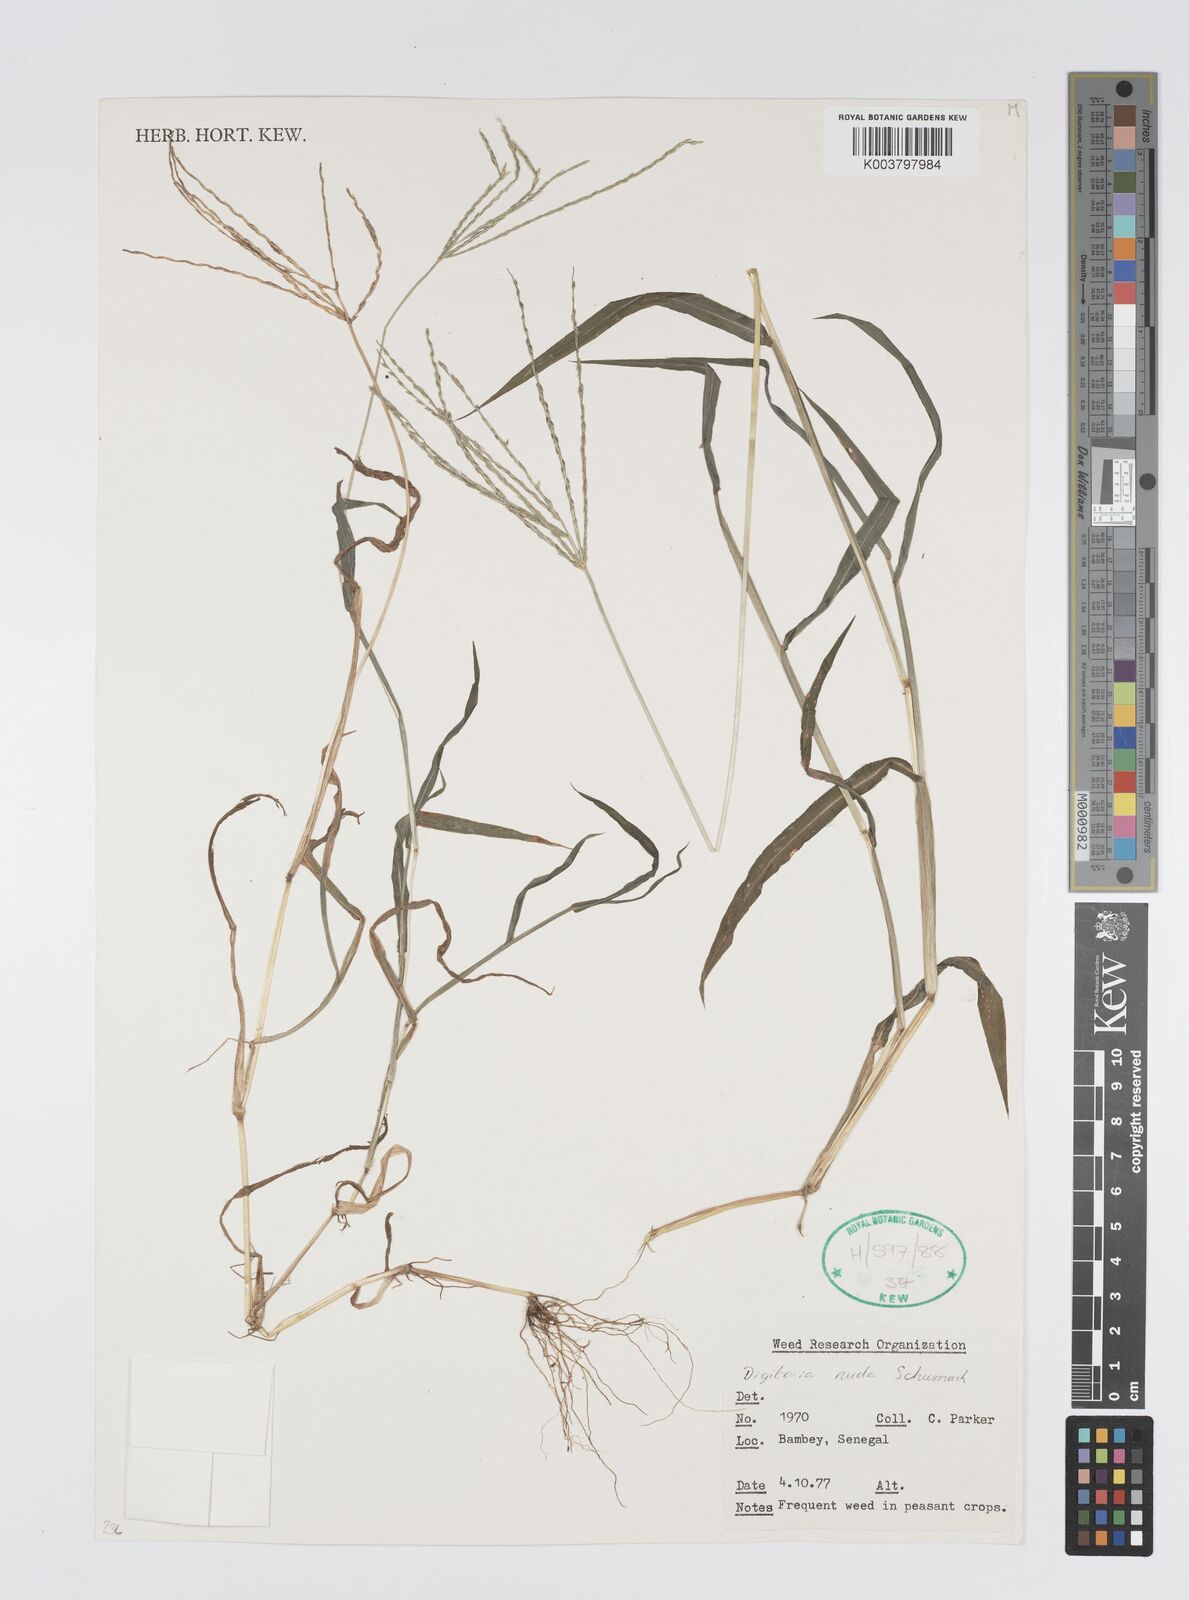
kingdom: Plantae
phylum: Tracheophyta
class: Liliopsida
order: Poales
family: Poaceae
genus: Digitaria
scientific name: Digitaria nuda
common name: Naked crabgrass
